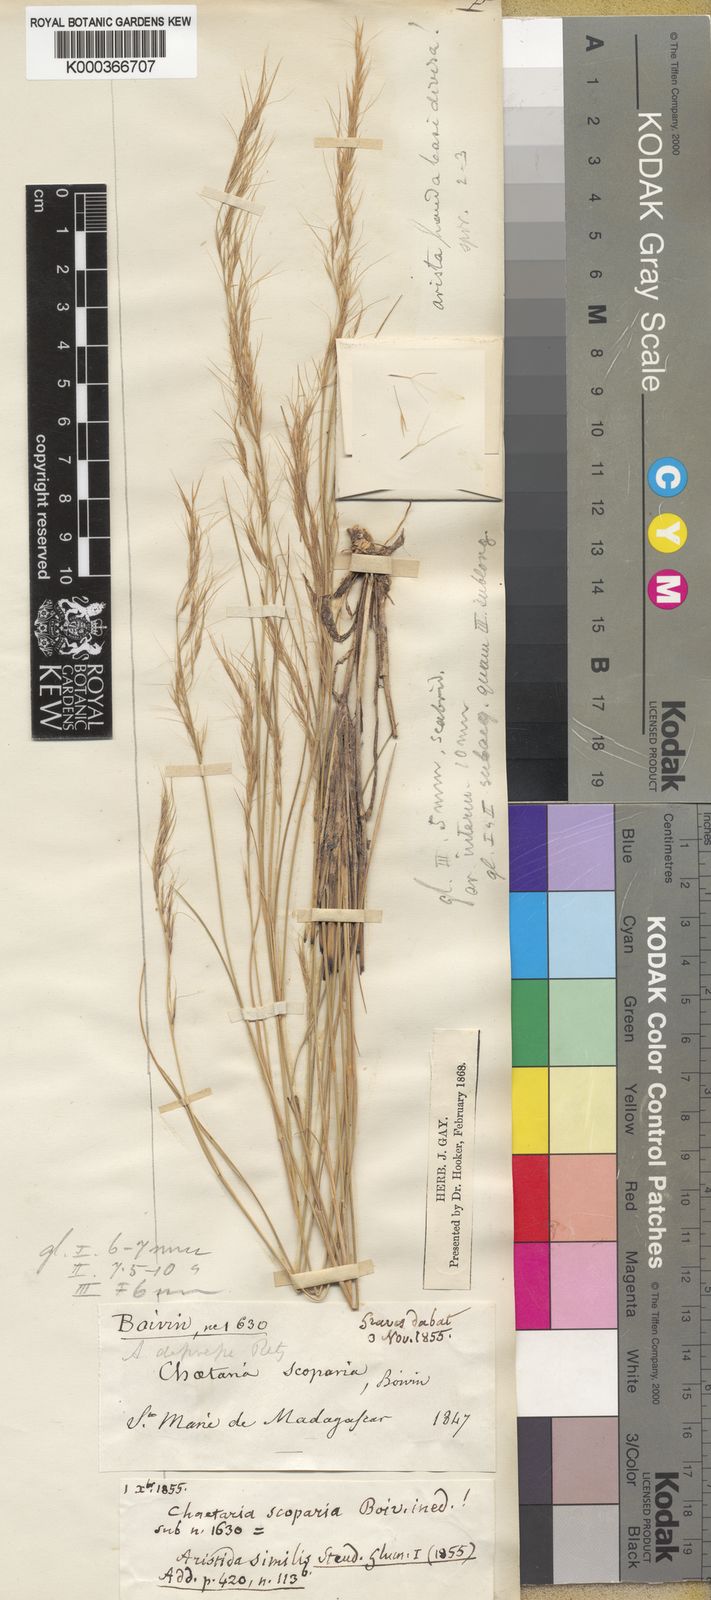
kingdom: Plantae
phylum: Tracheophyta
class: Liliopsida
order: Poales
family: Poaceae
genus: Aristida
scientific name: Aristida similis
